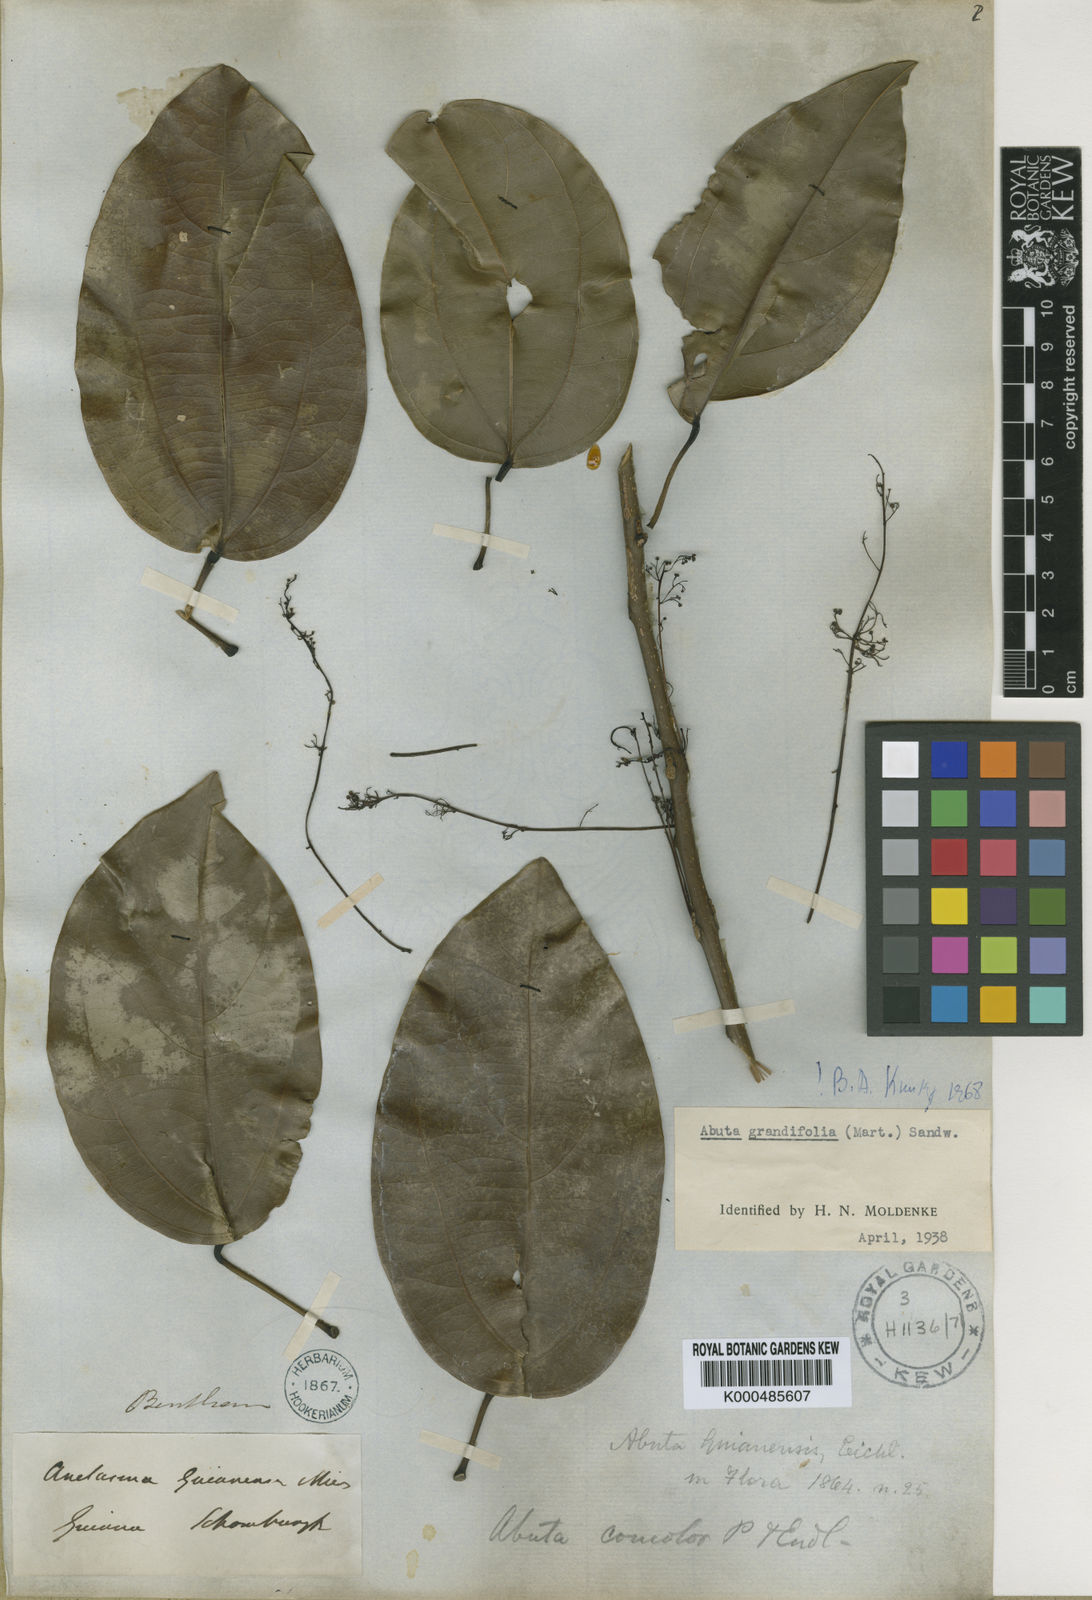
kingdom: Plantae
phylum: Tracheophyta
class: Magnoliopsida
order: Ranunculales
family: Menispermaceae
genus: Abuta
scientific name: Abuta grandifolia
